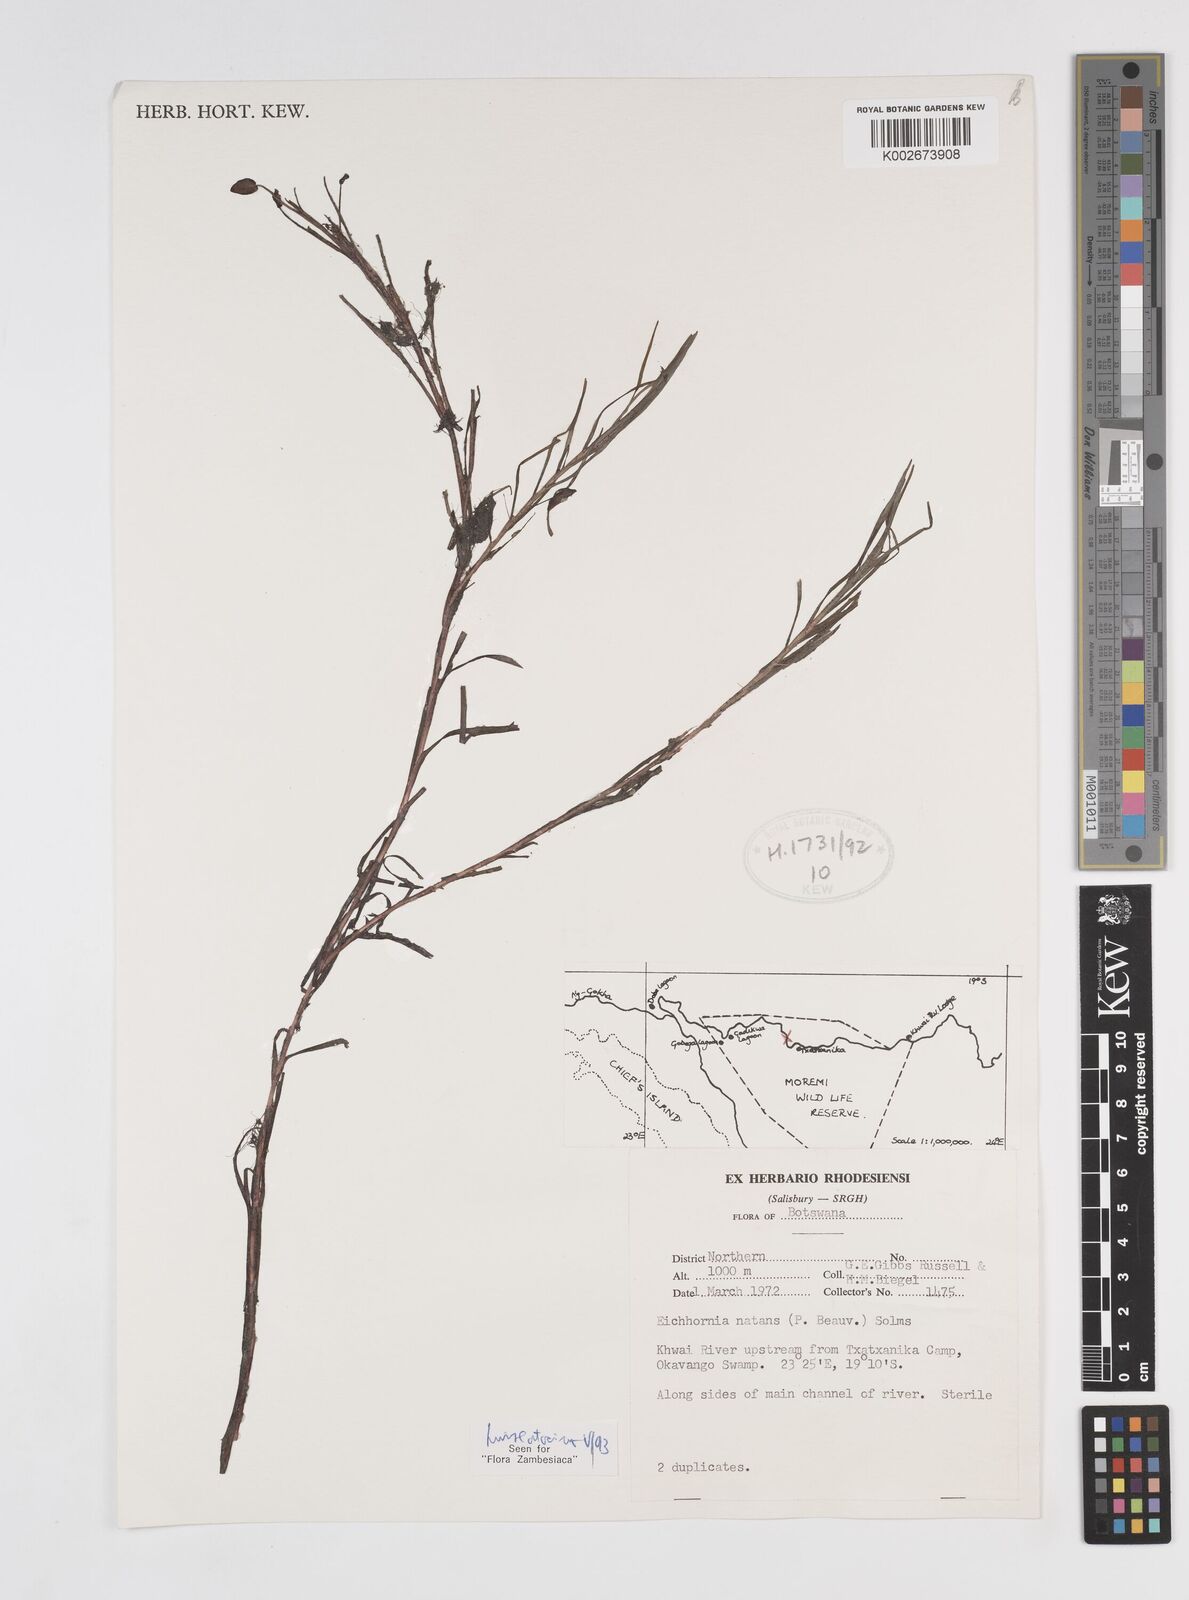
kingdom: Plantae
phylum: Tracheophyta
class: Liliopsida
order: Commelinales
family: Pontederiaceae
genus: Pontederia
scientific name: Pontederia natans
